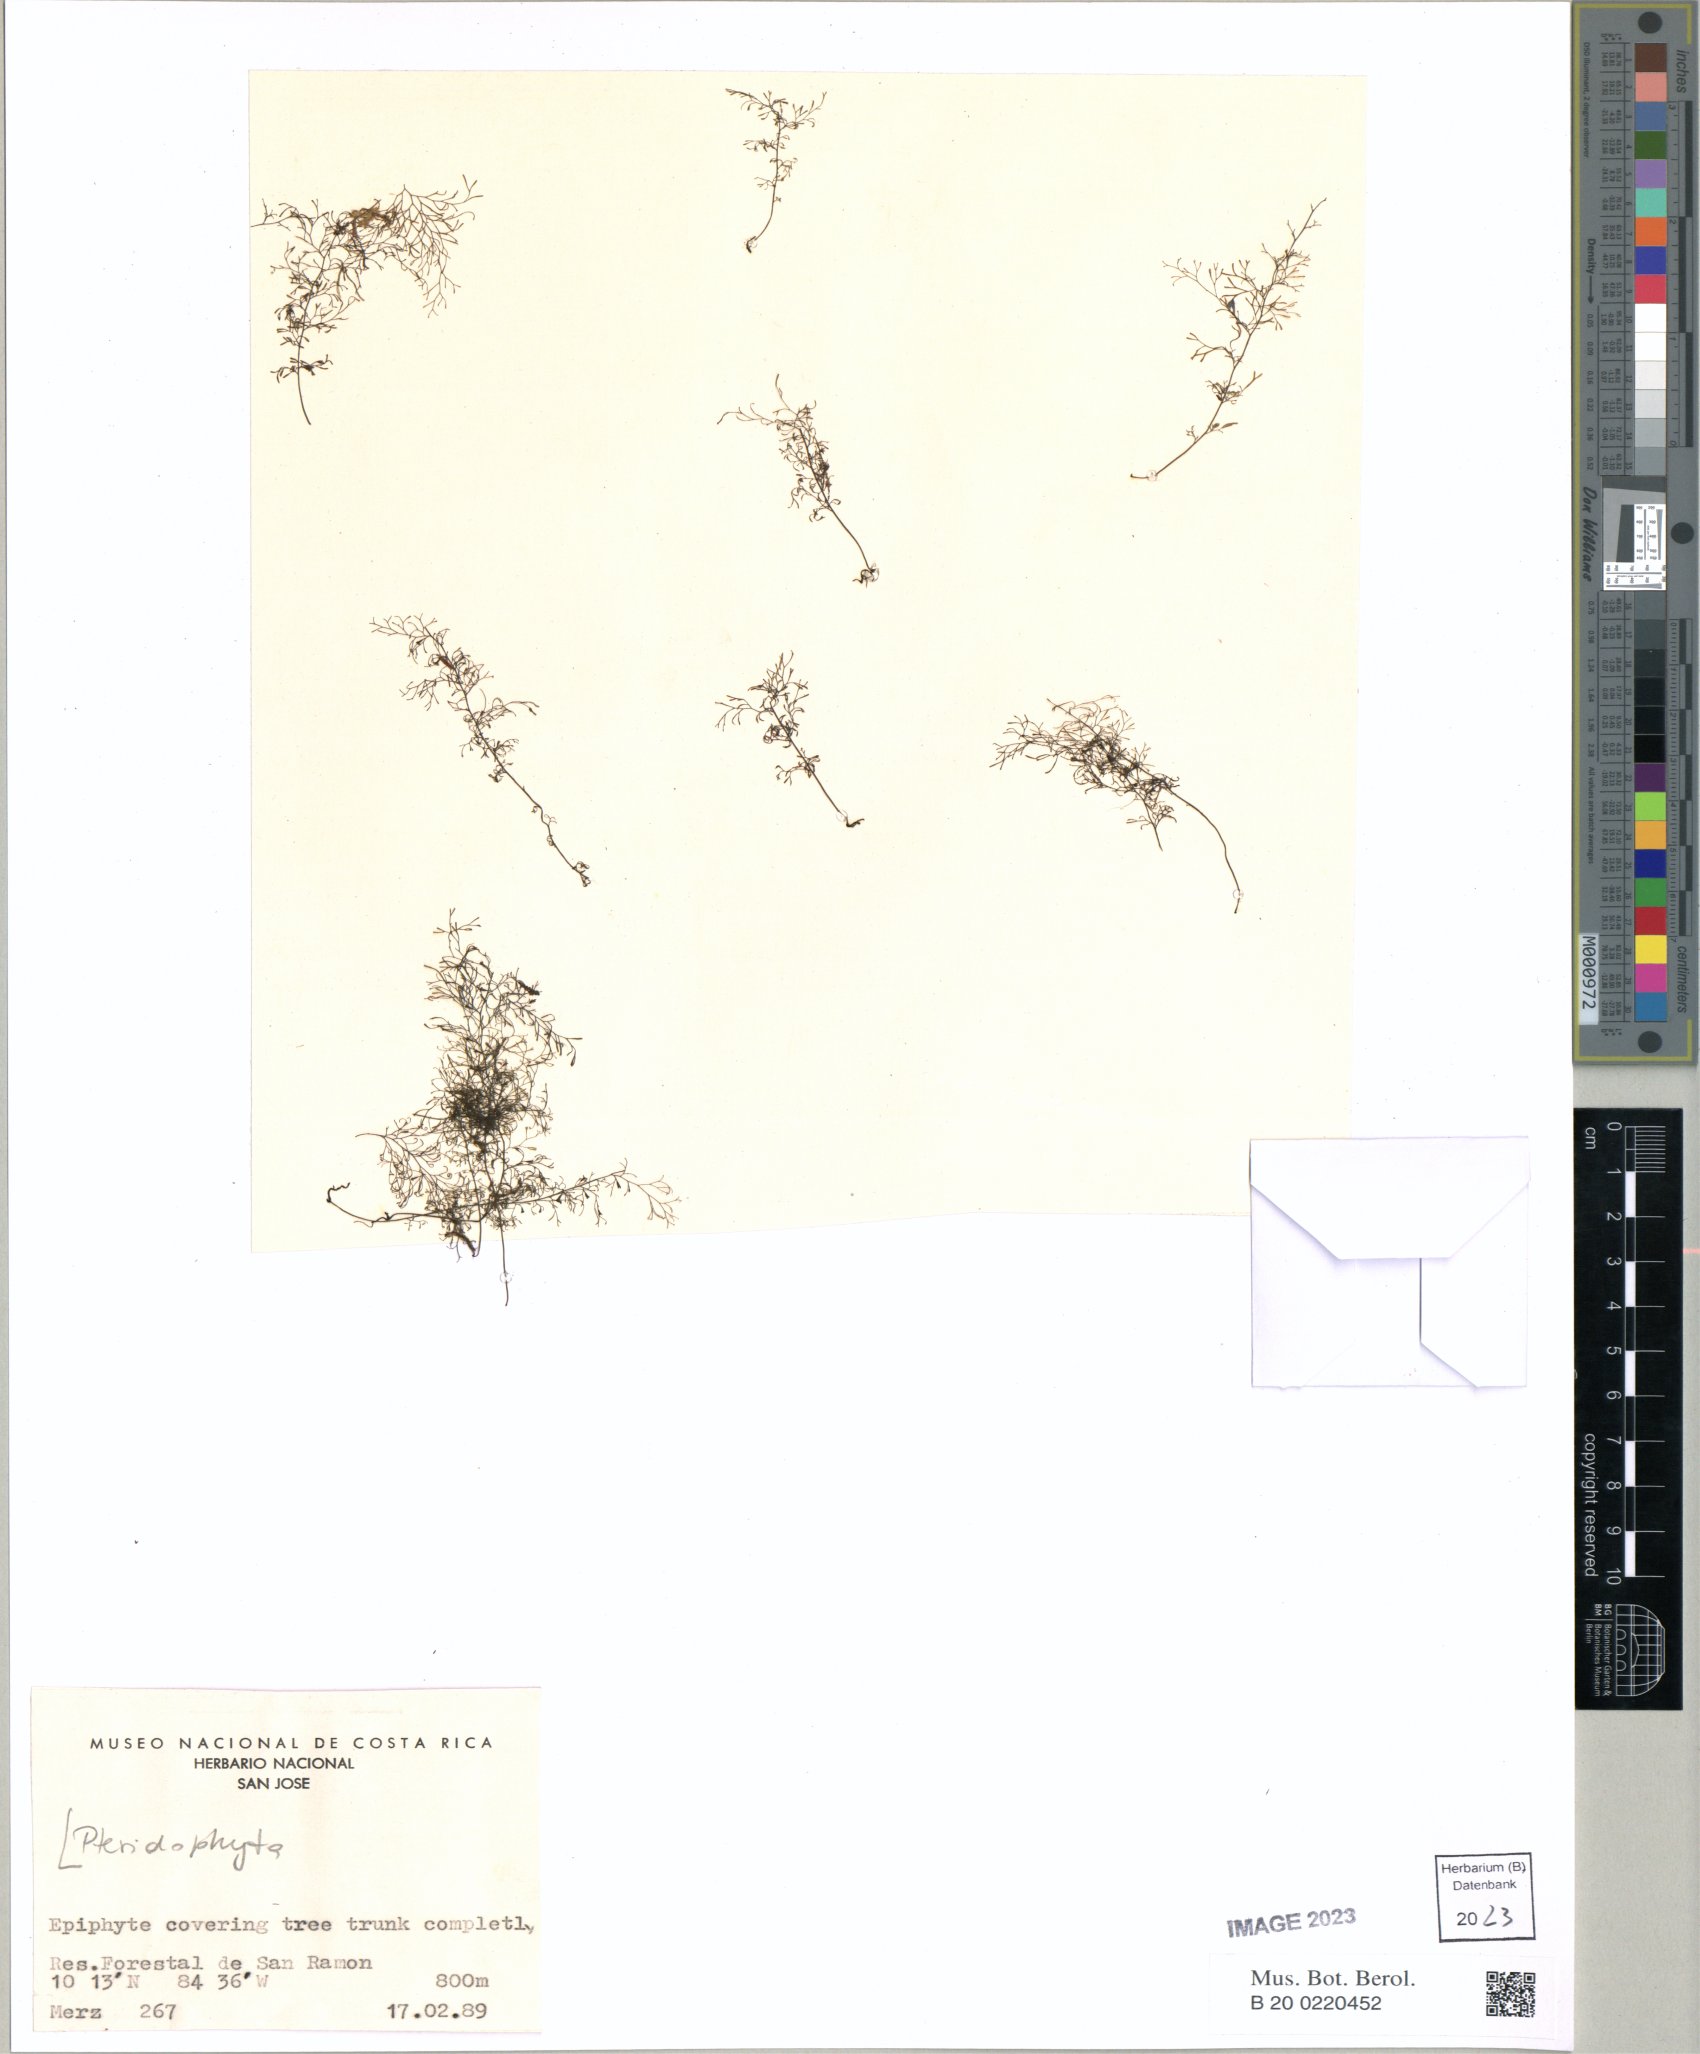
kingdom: Plantae
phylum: Tracheophyta
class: Polypodiopsida
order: Hymenophyllales
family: Hymenophyllaceae
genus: Polyphlebium
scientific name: Polyphlebium capillaceum
